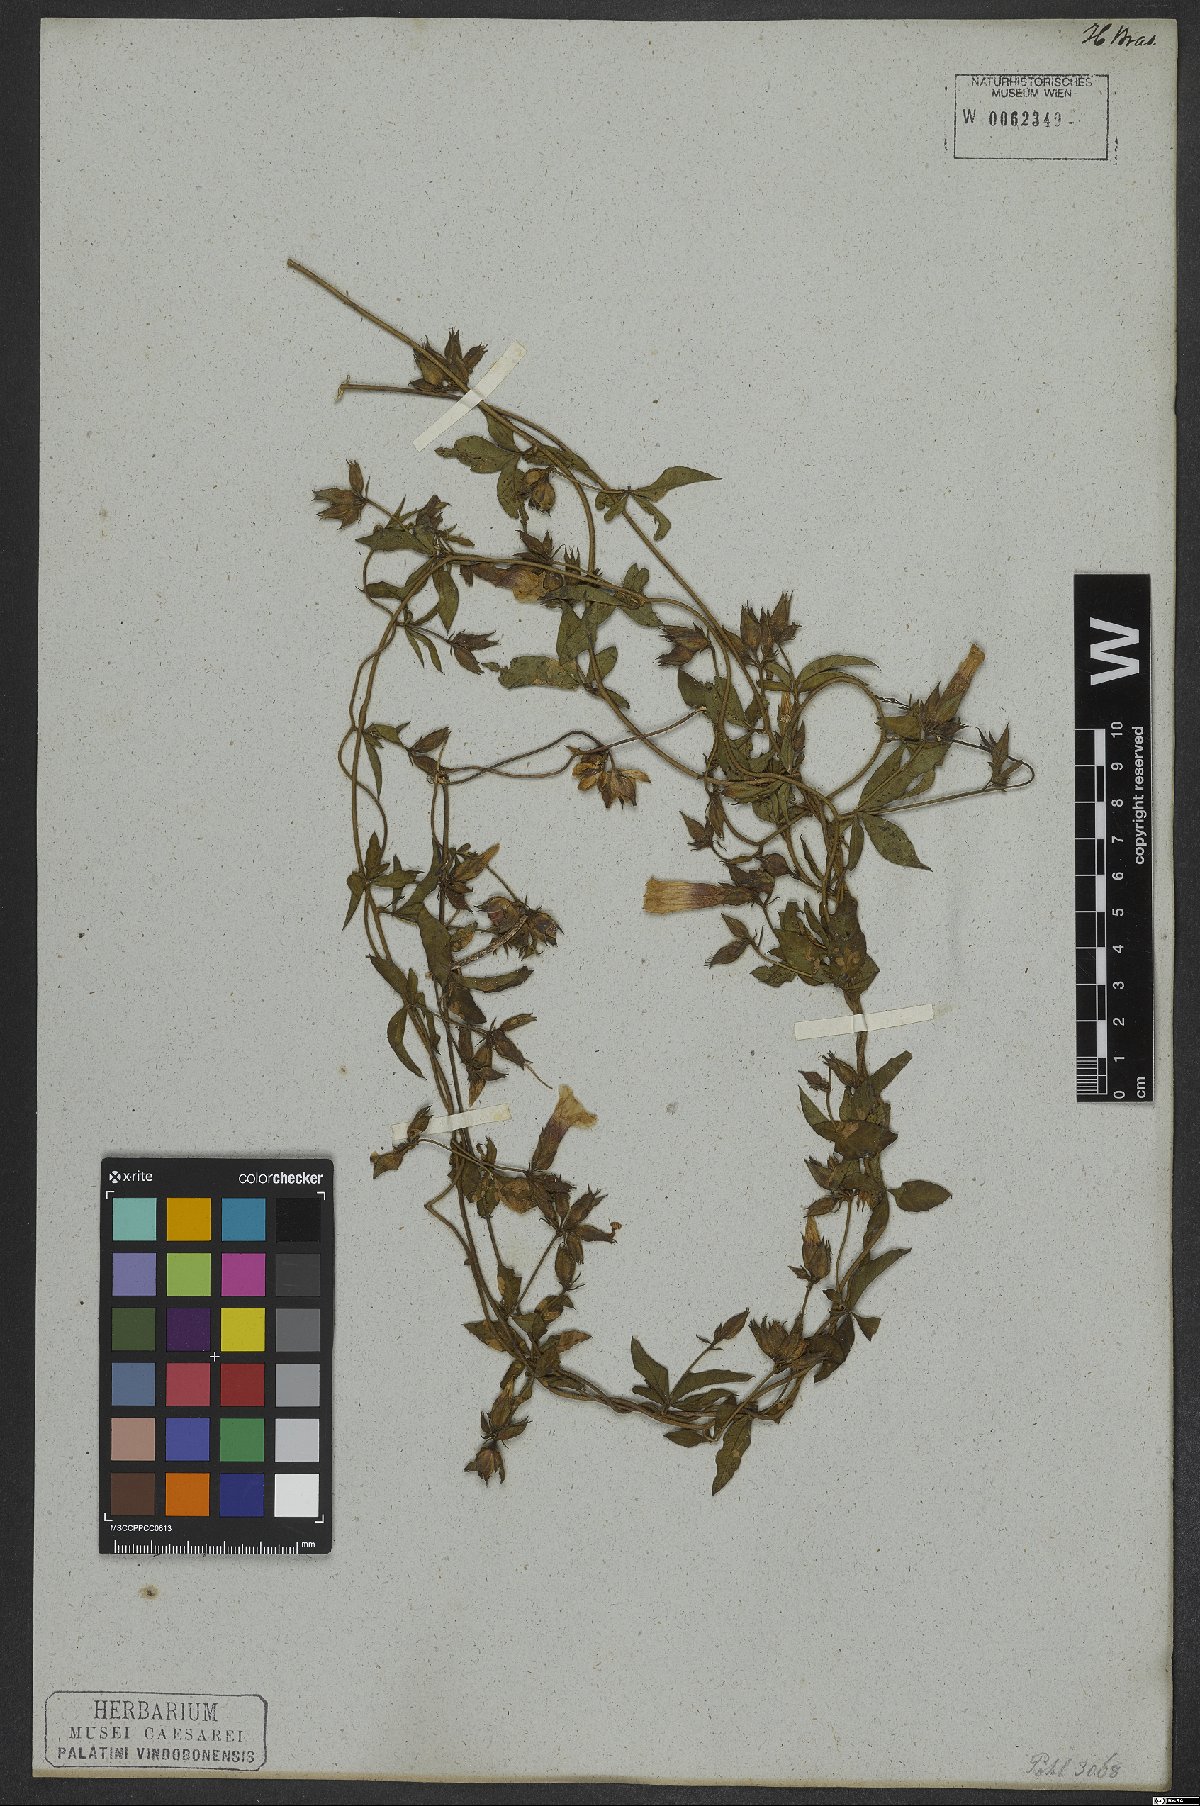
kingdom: Plantae
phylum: Tracheophyta
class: Magnoliopsida
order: Solanales
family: Convolvulaceae
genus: Distimake
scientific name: Distimake cissoides
